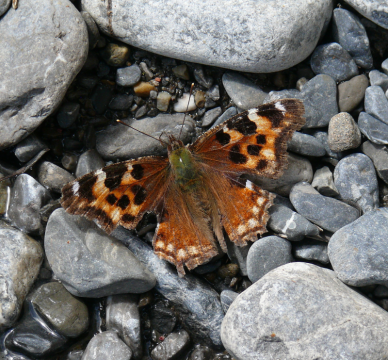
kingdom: Animalia
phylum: Arthropoda
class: Insecta
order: Lepidoptera
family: Nymphalidae
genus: Polygonia
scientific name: Polygonia vaualbum
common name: Compton Tortoiseshell
